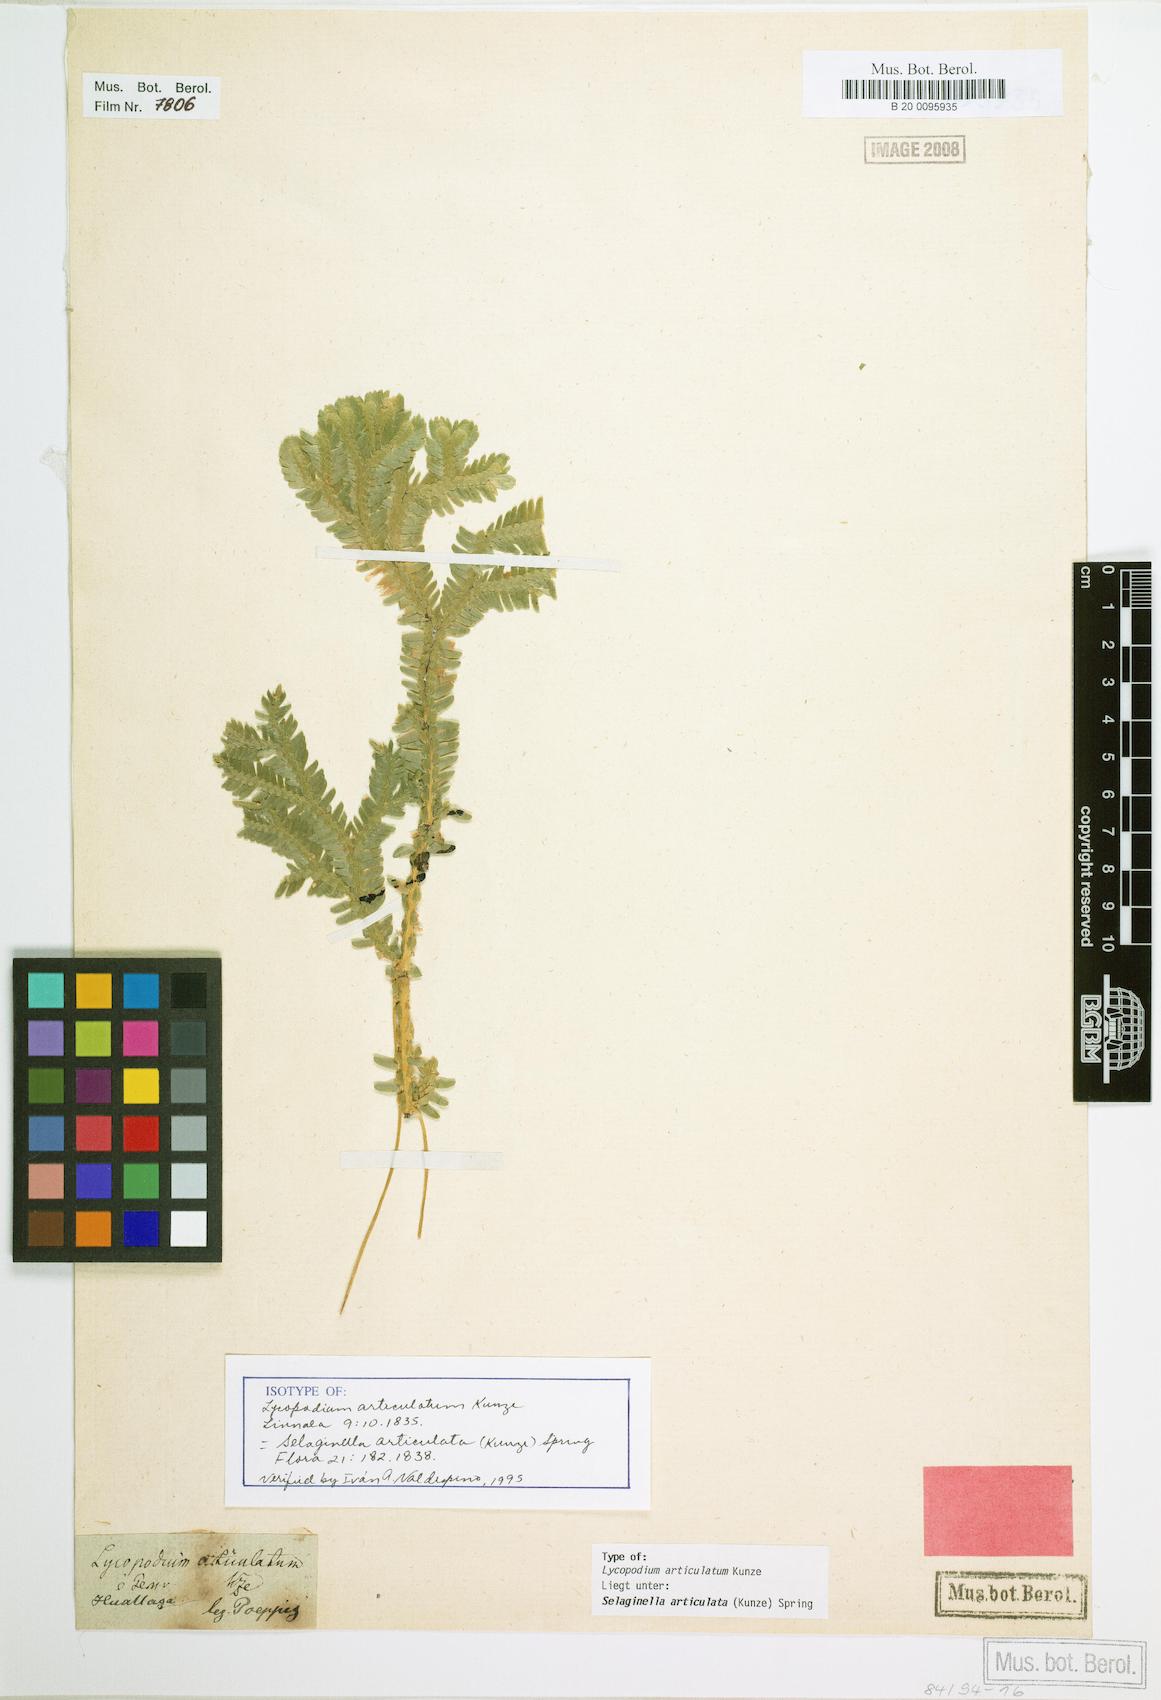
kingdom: Plantae
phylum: Tracheophyta
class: Lycopodiopsida
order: Selaginellales
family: Selaginellaceae
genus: Selaginella
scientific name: Selaginella articulata
